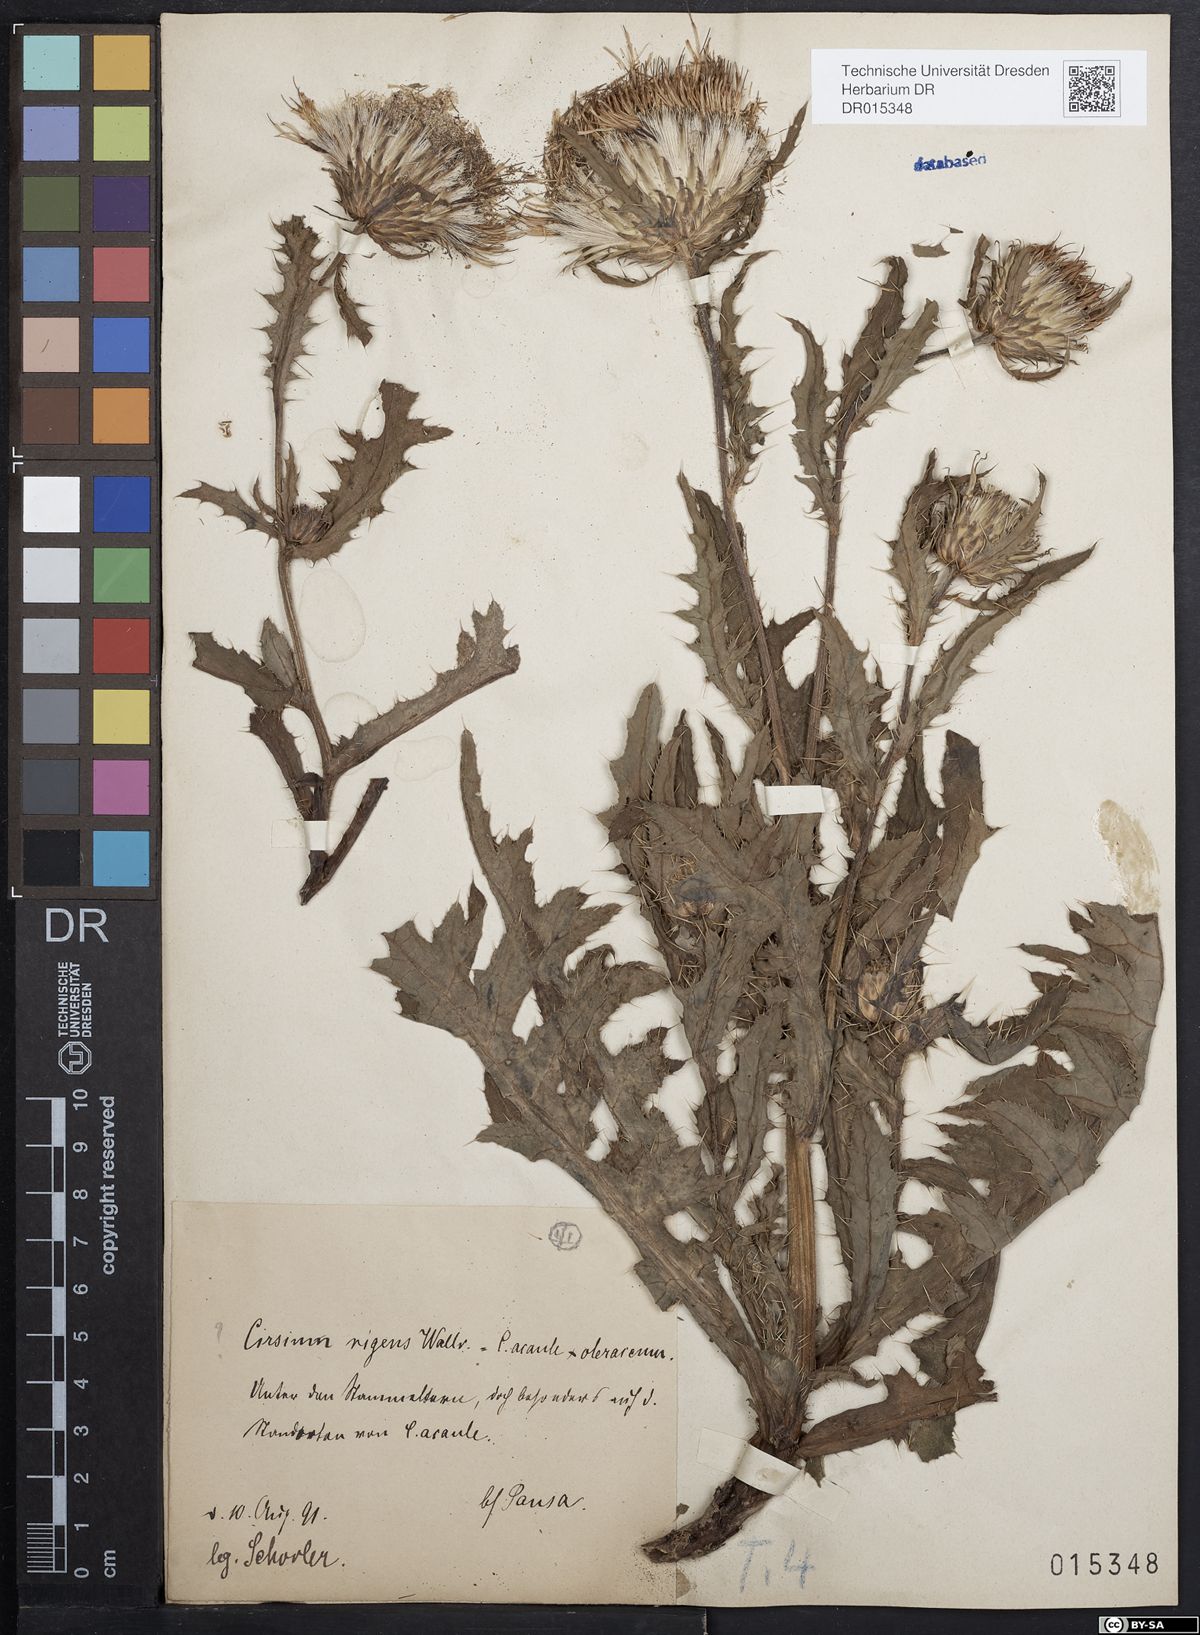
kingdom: Plantae
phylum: Tracheophyta
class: Magnoliopsida
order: Asterales
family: Asteraceae
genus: Cirsium
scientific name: Cirsium rigens
